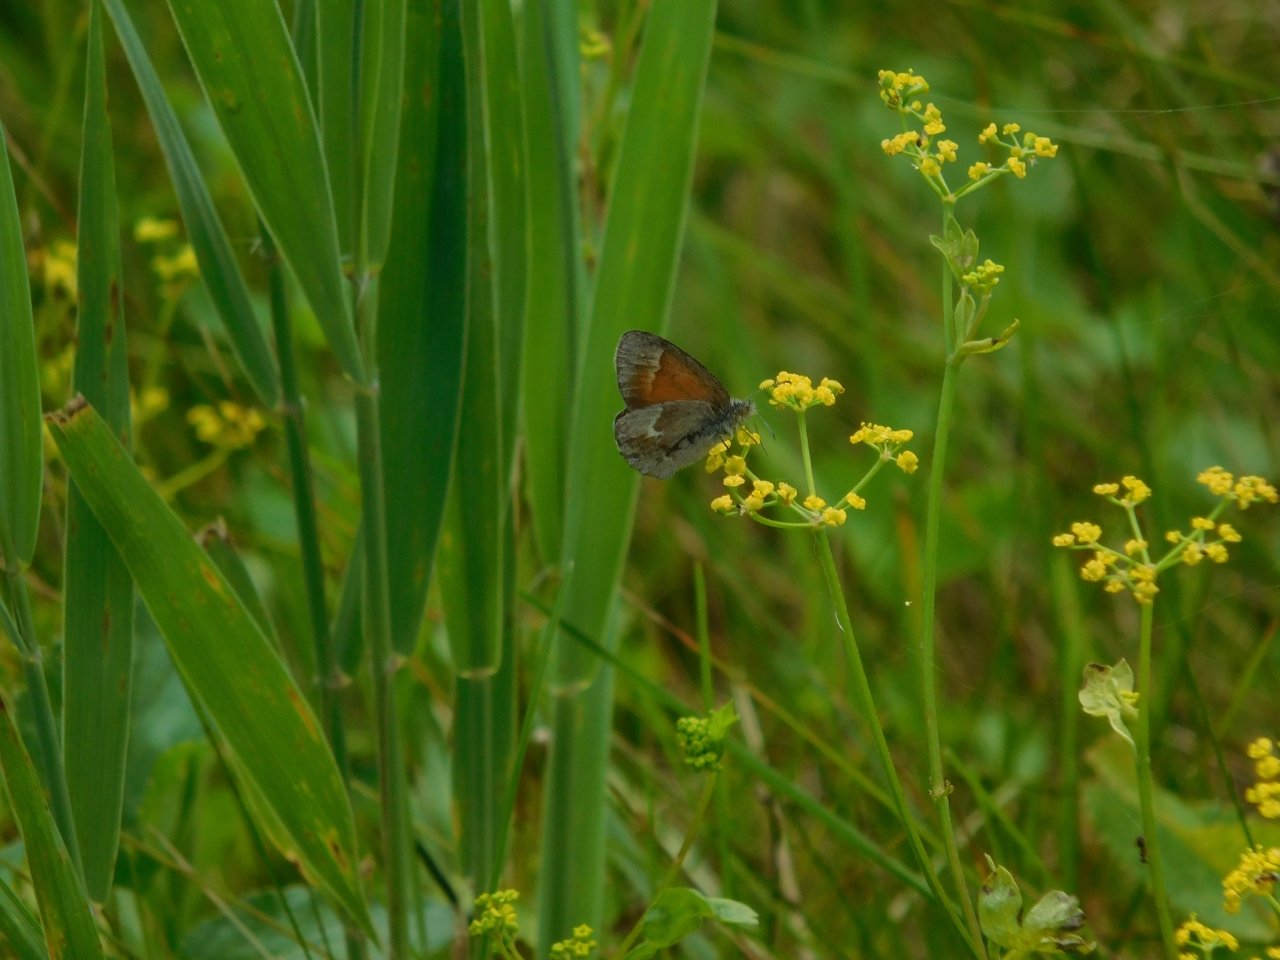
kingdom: Animalia
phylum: Arthropoda
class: Insecta
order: Lepidoptera
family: Nymphalidae
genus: Coenonympha
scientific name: Coenonympha tullia
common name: Large Heath
